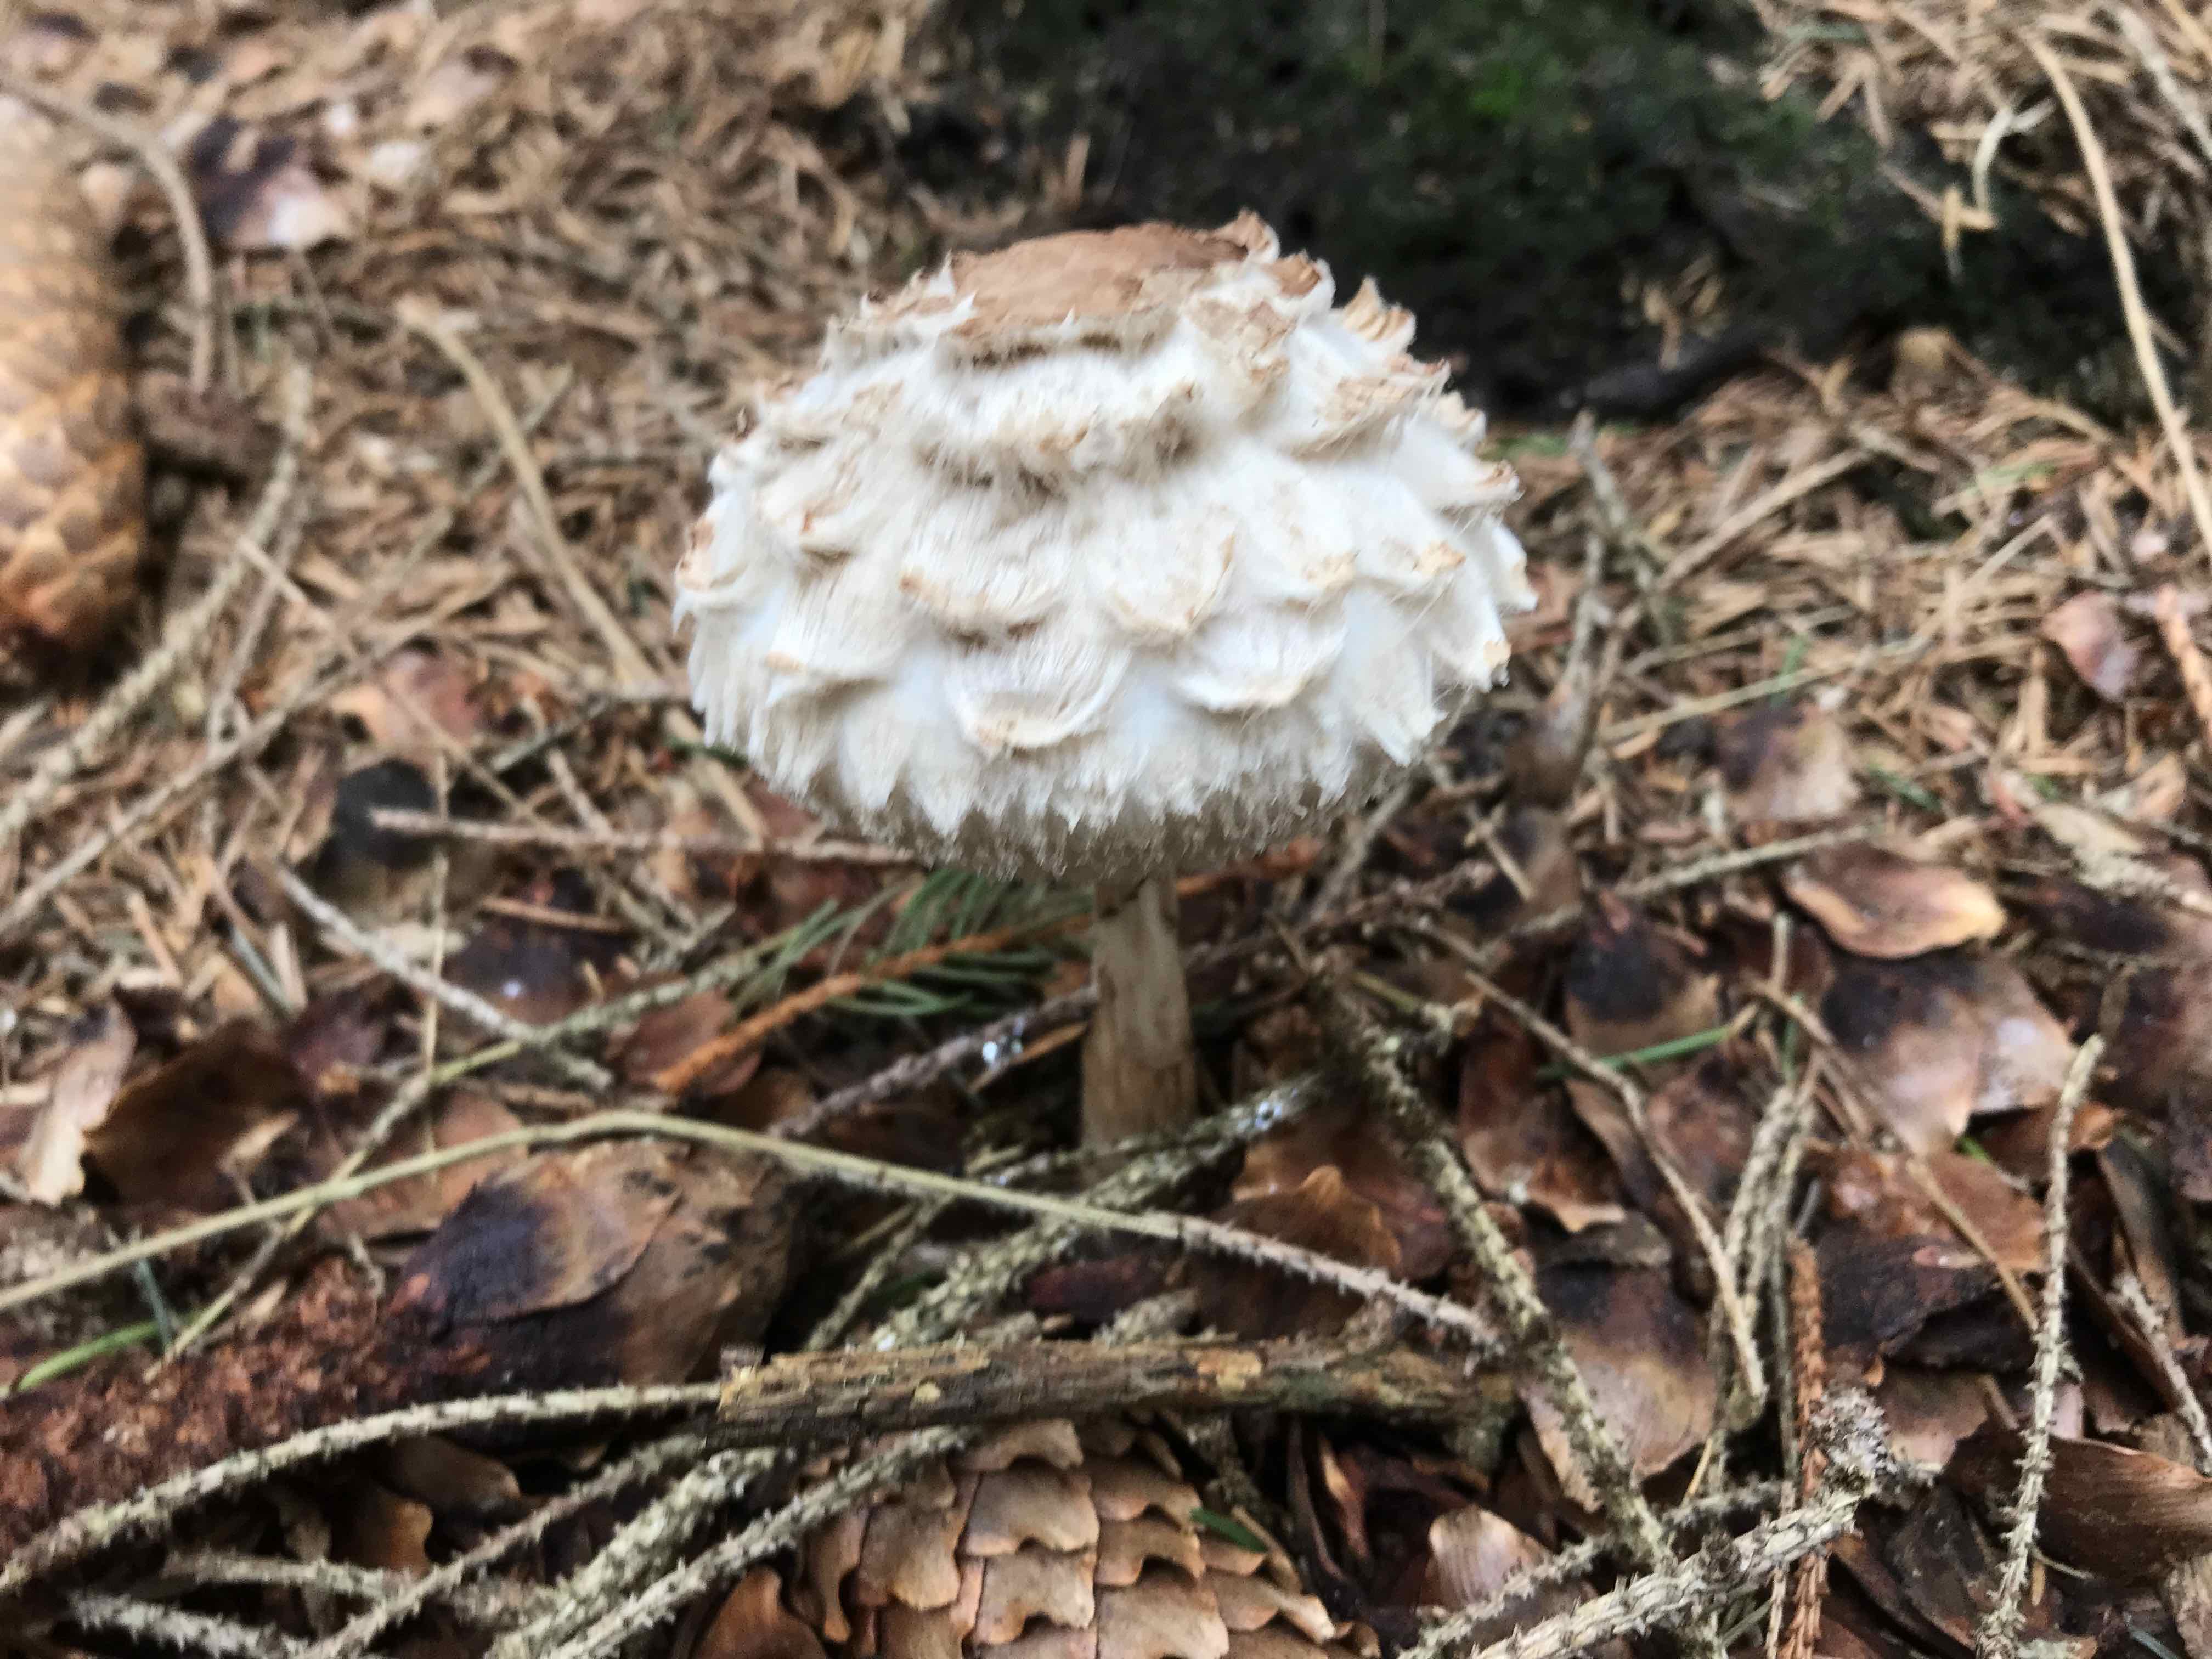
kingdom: Fungi
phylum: Basidiomycota
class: Agaricomycetes
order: Agaricales
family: Agaricaceae
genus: Chlorophyllum
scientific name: Chlorophyllum olivieri
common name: almindelig rabarberhat
